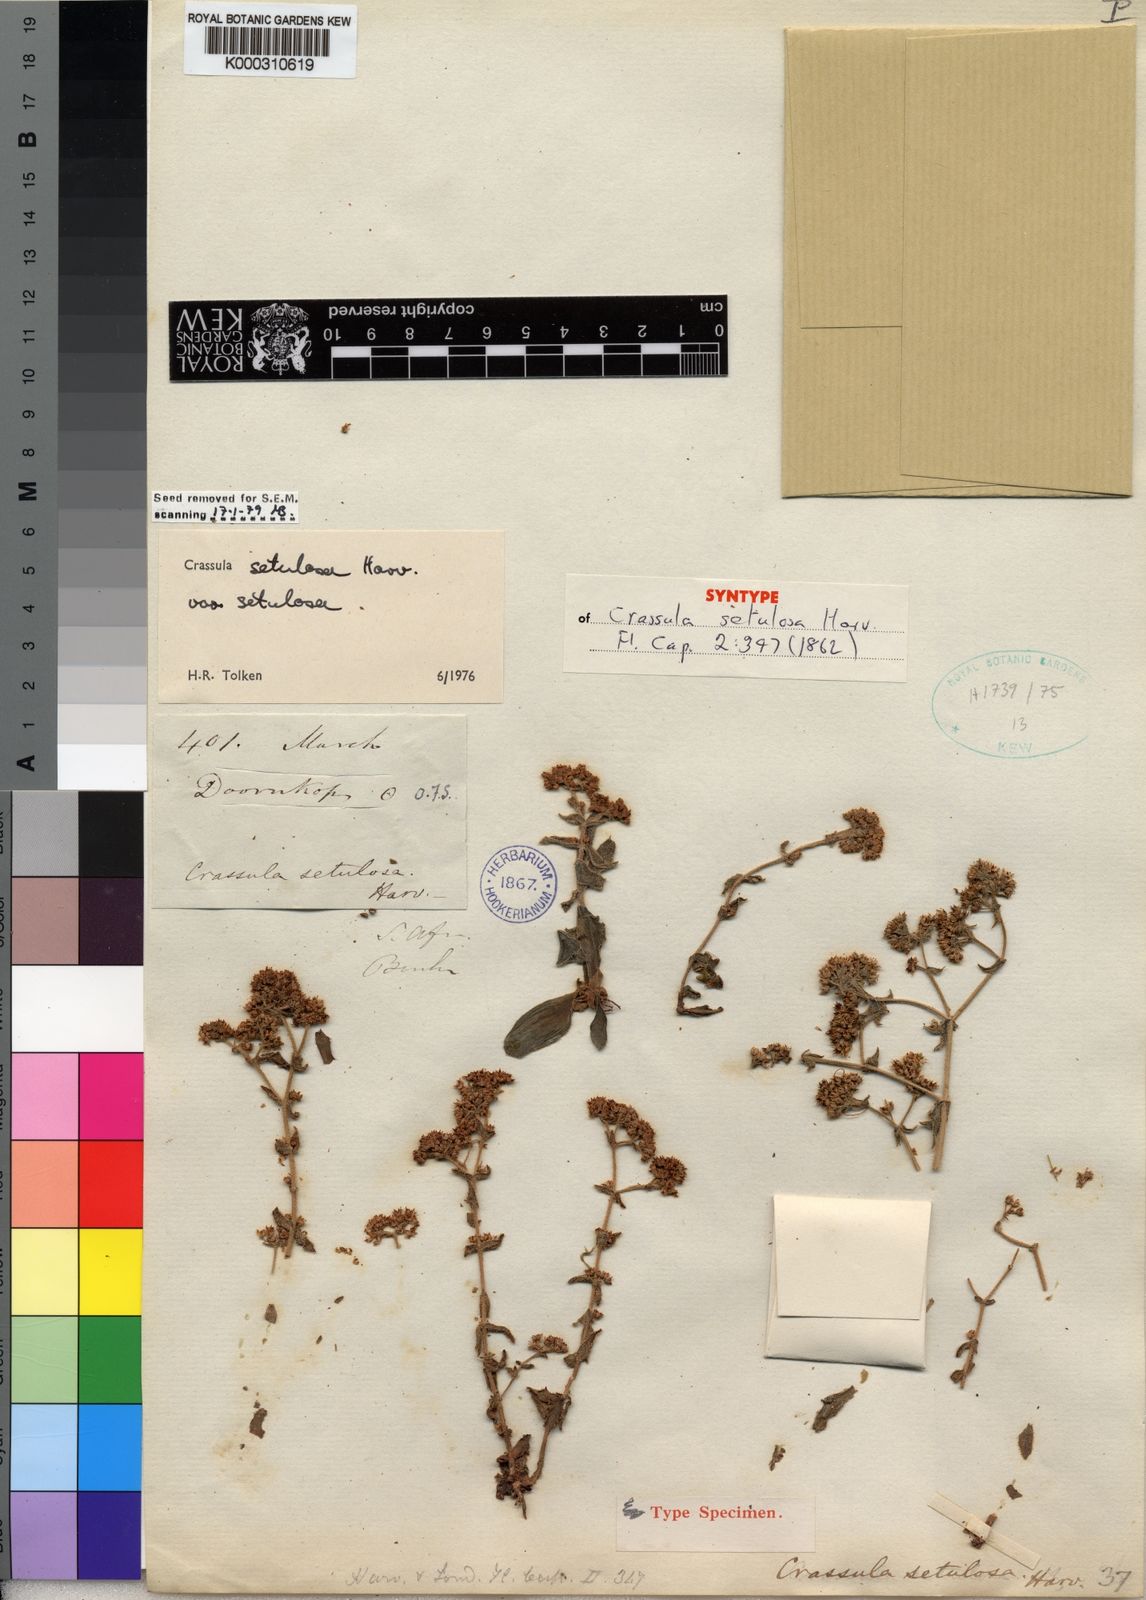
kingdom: Plantae
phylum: Tracheophyta
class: Magnoliopsida
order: Saxifragales
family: Crassulaceae
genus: Crassula
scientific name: Crassula setulosa
